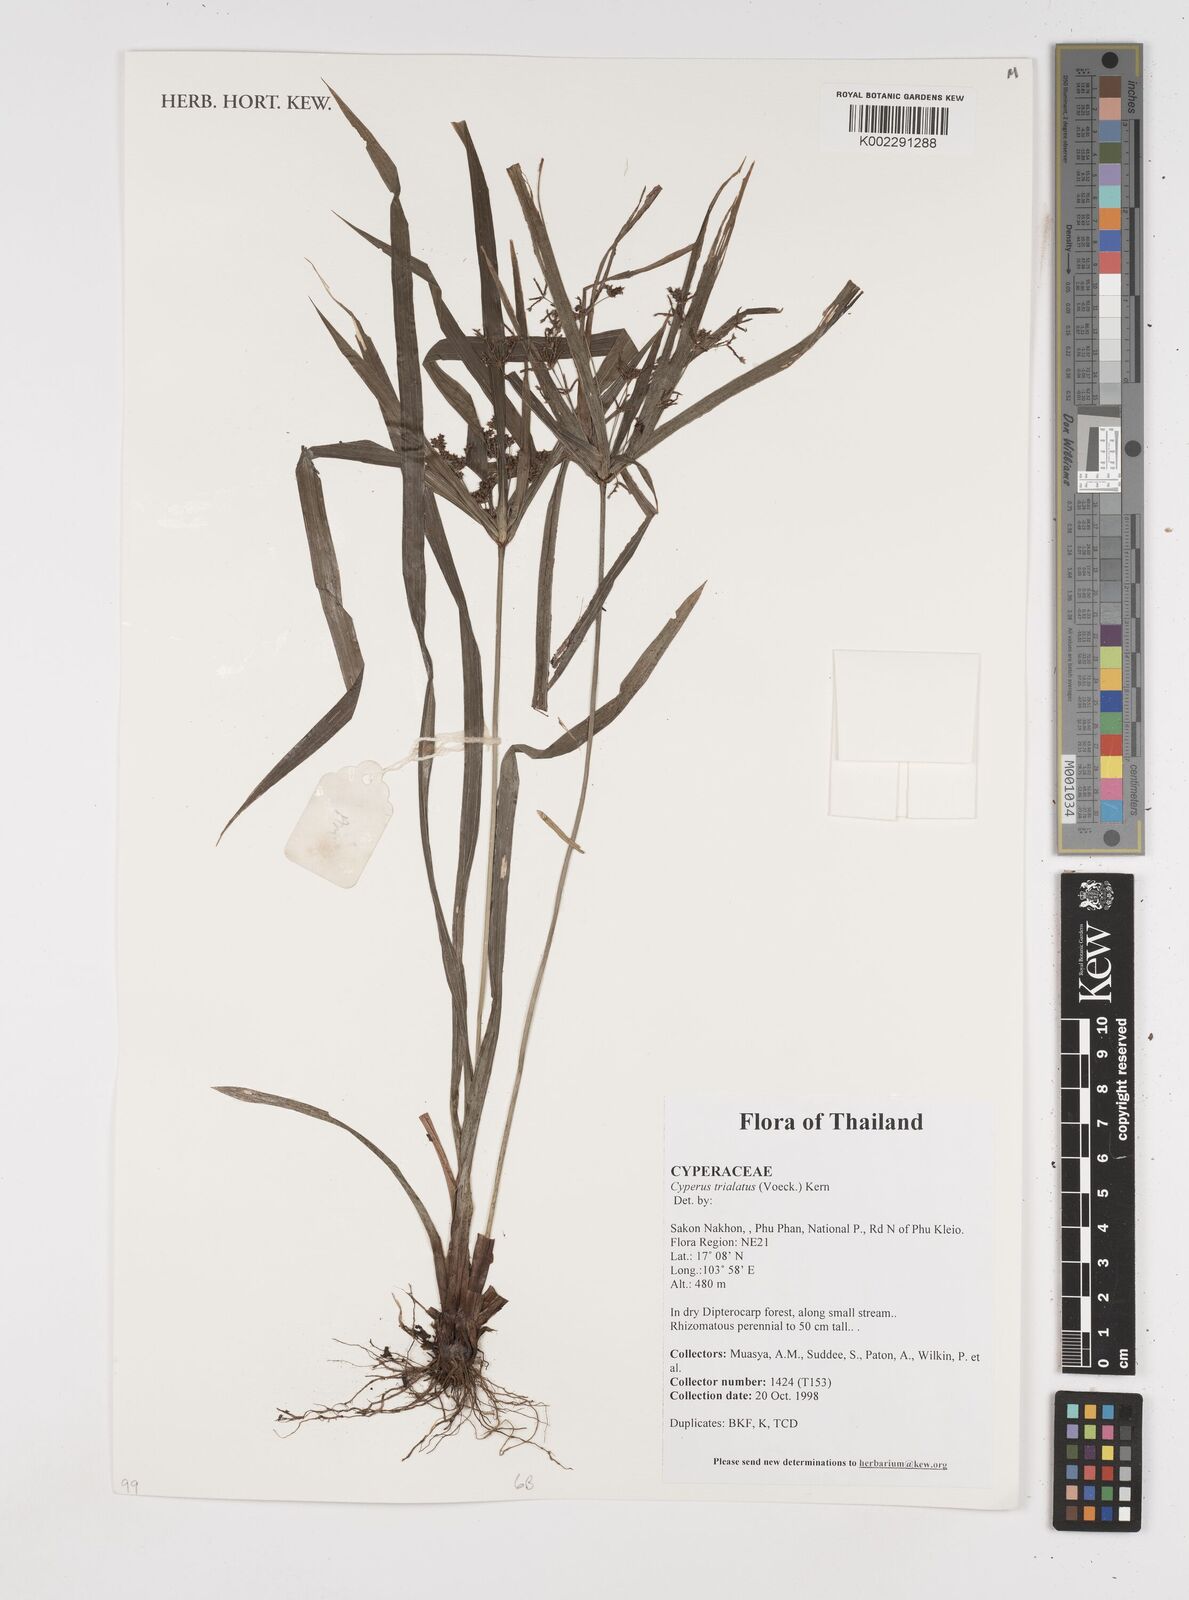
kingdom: Plantae
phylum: Tracheophyta
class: Liliopsida
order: Poales
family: Cyperaceae
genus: Cyperus
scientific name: Cyperus trialatus
